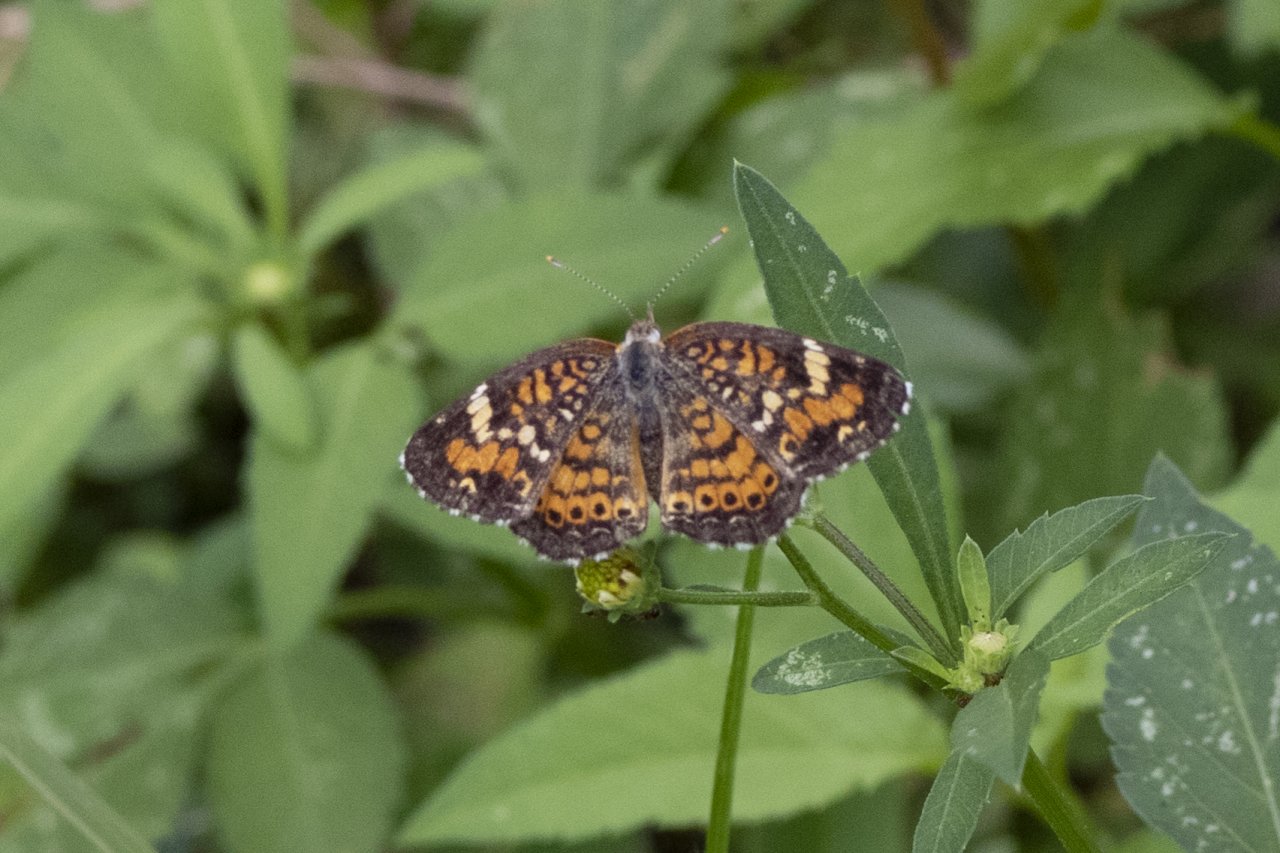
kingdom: Animalia
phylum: Arthropoda
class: Insecta
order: Lepidoptera
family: Nymphalidae
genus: Phyciodes
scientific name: Phyciodes phaon
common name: Phaon Crescent
